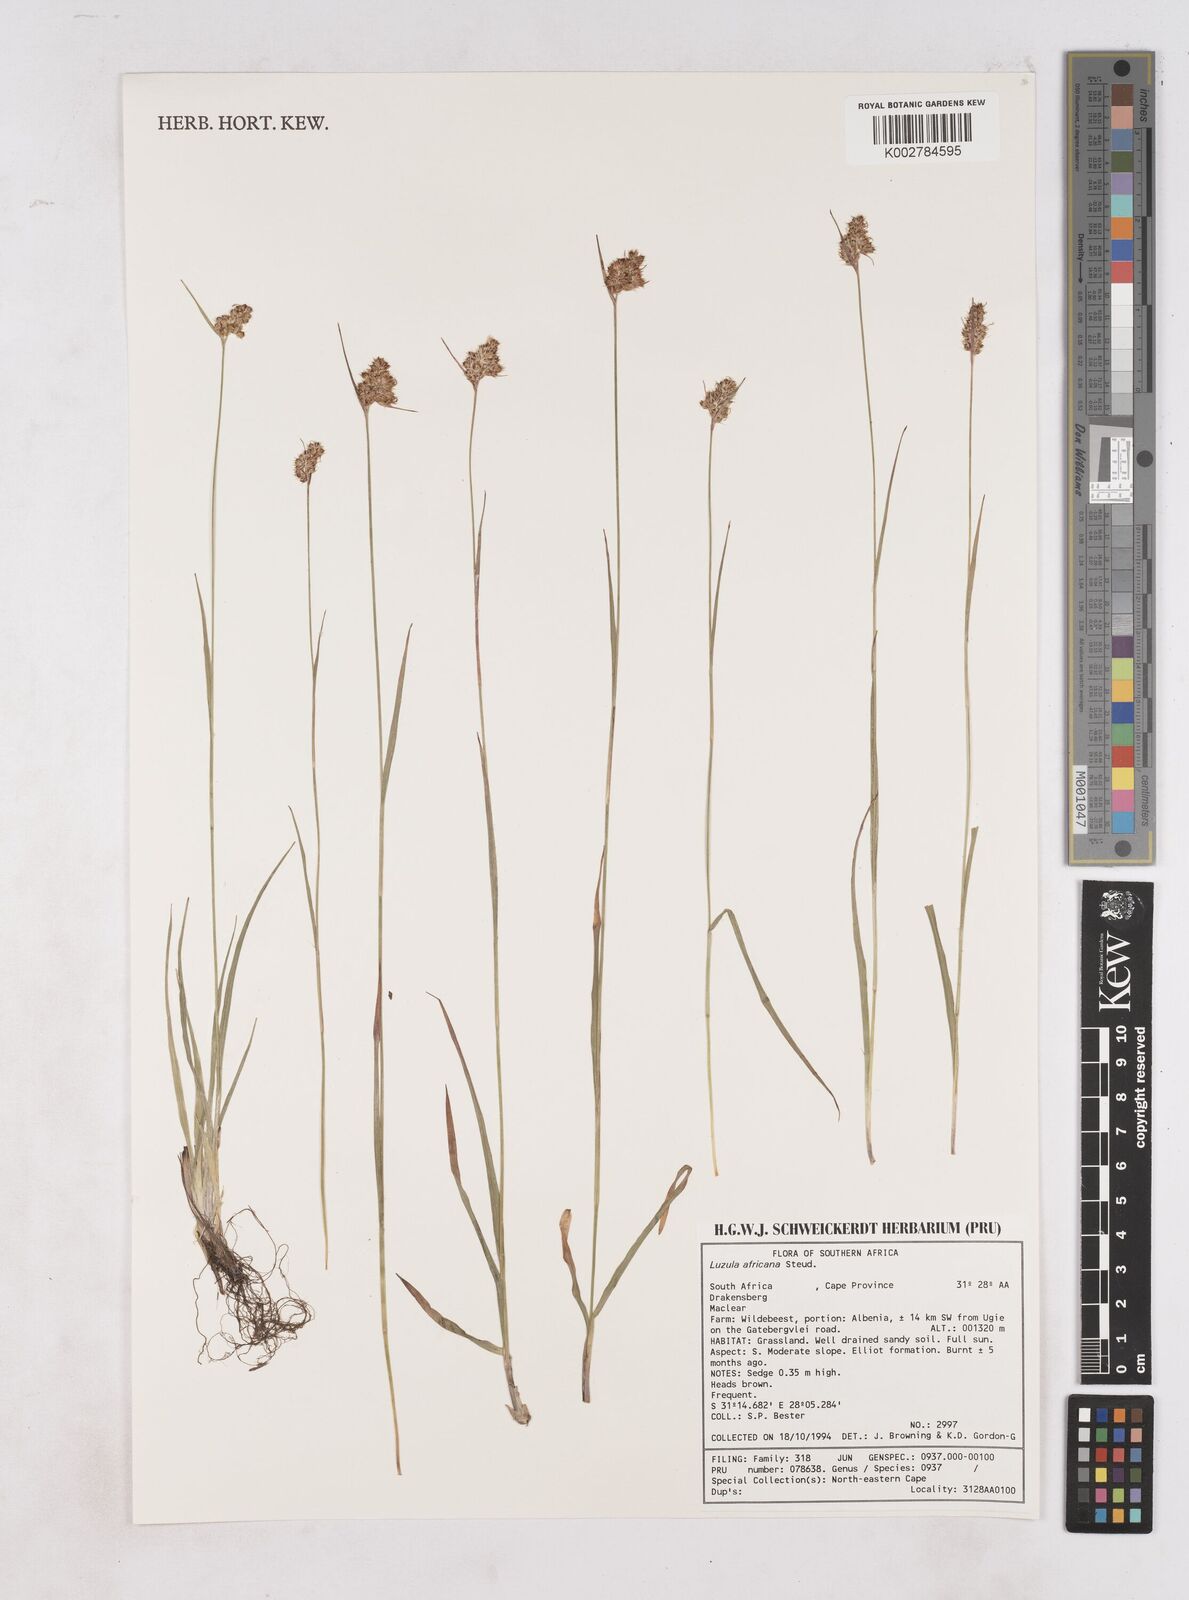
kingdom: Plantae
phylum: Tracheophyta
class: Liliopsida
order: Poales
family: Juncaceae
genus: Luzula
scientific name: Luzula africana
